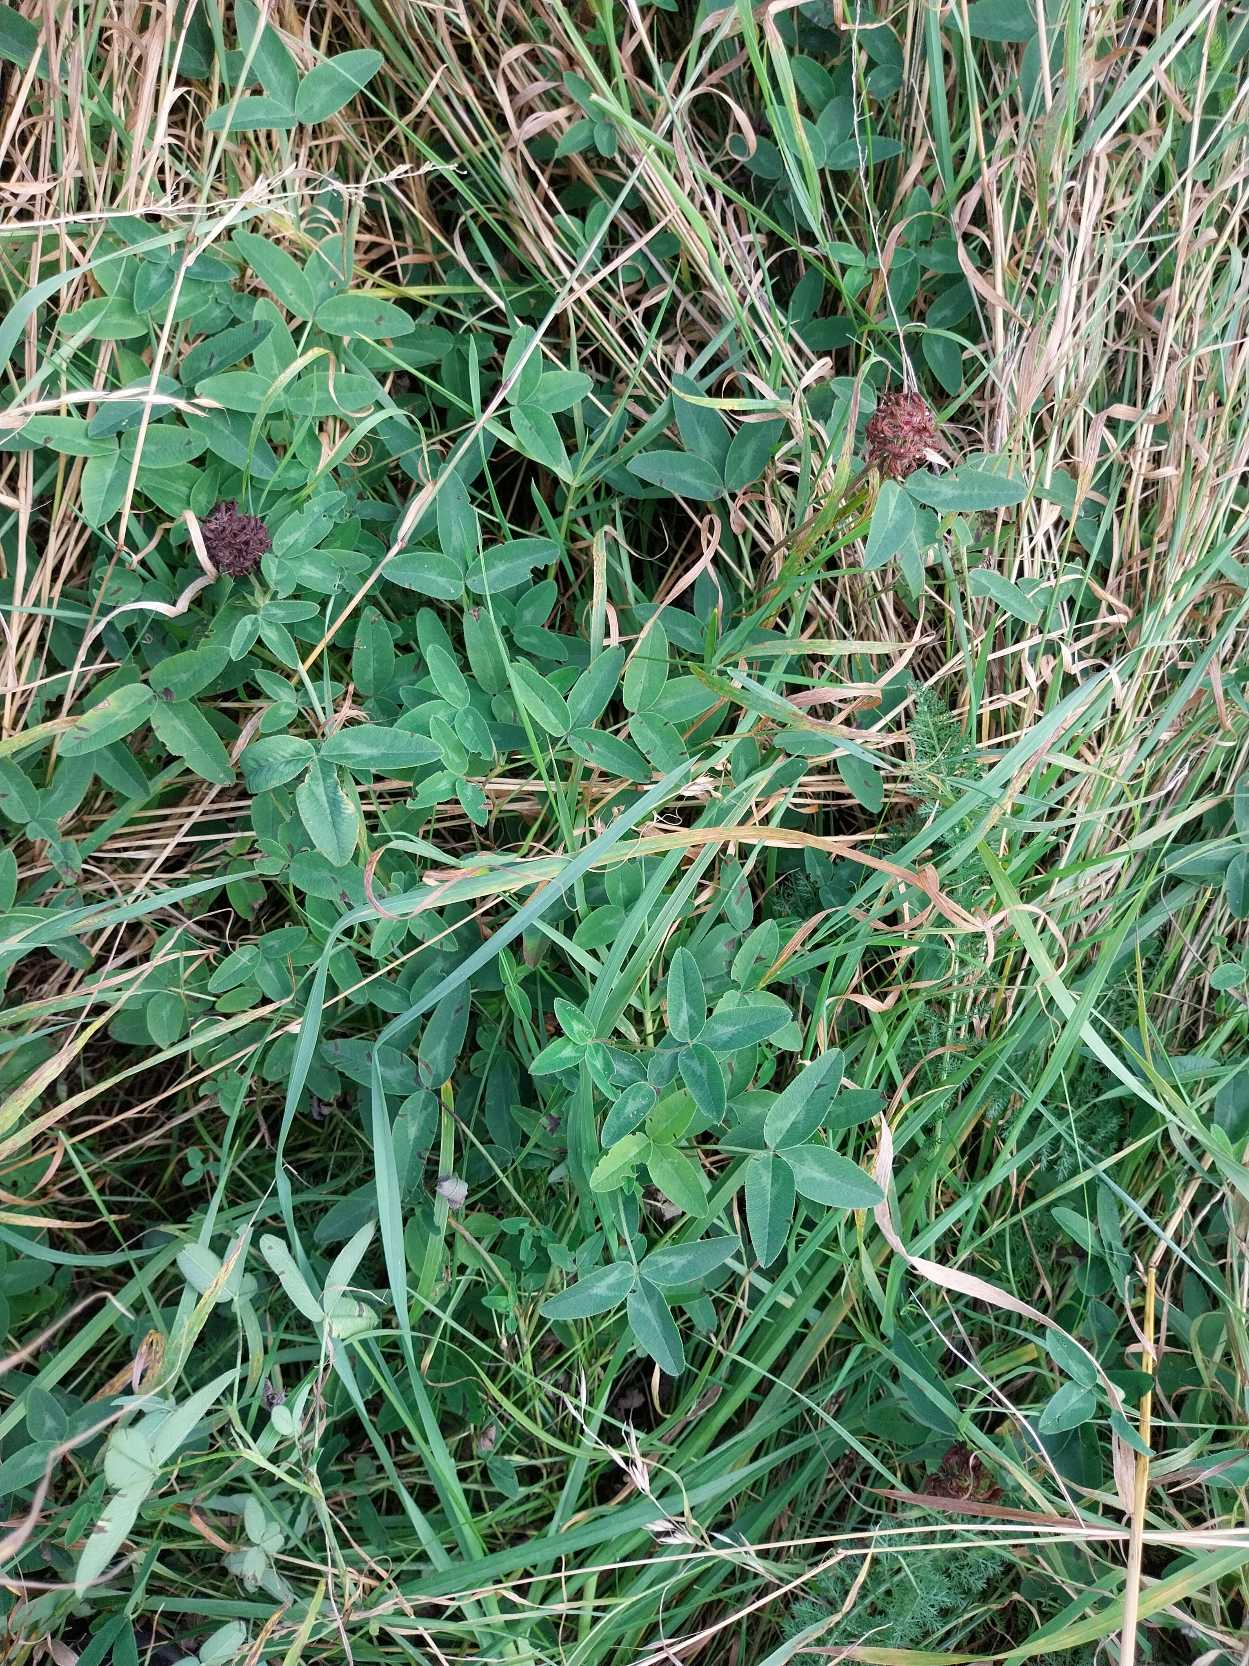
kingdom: Plantae
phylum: Tracheophyta
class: Magnoliopsida
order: Fabales
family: Fabaceae
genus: Trifolium
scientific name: Trifolium medium
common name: Bugtet kløver
